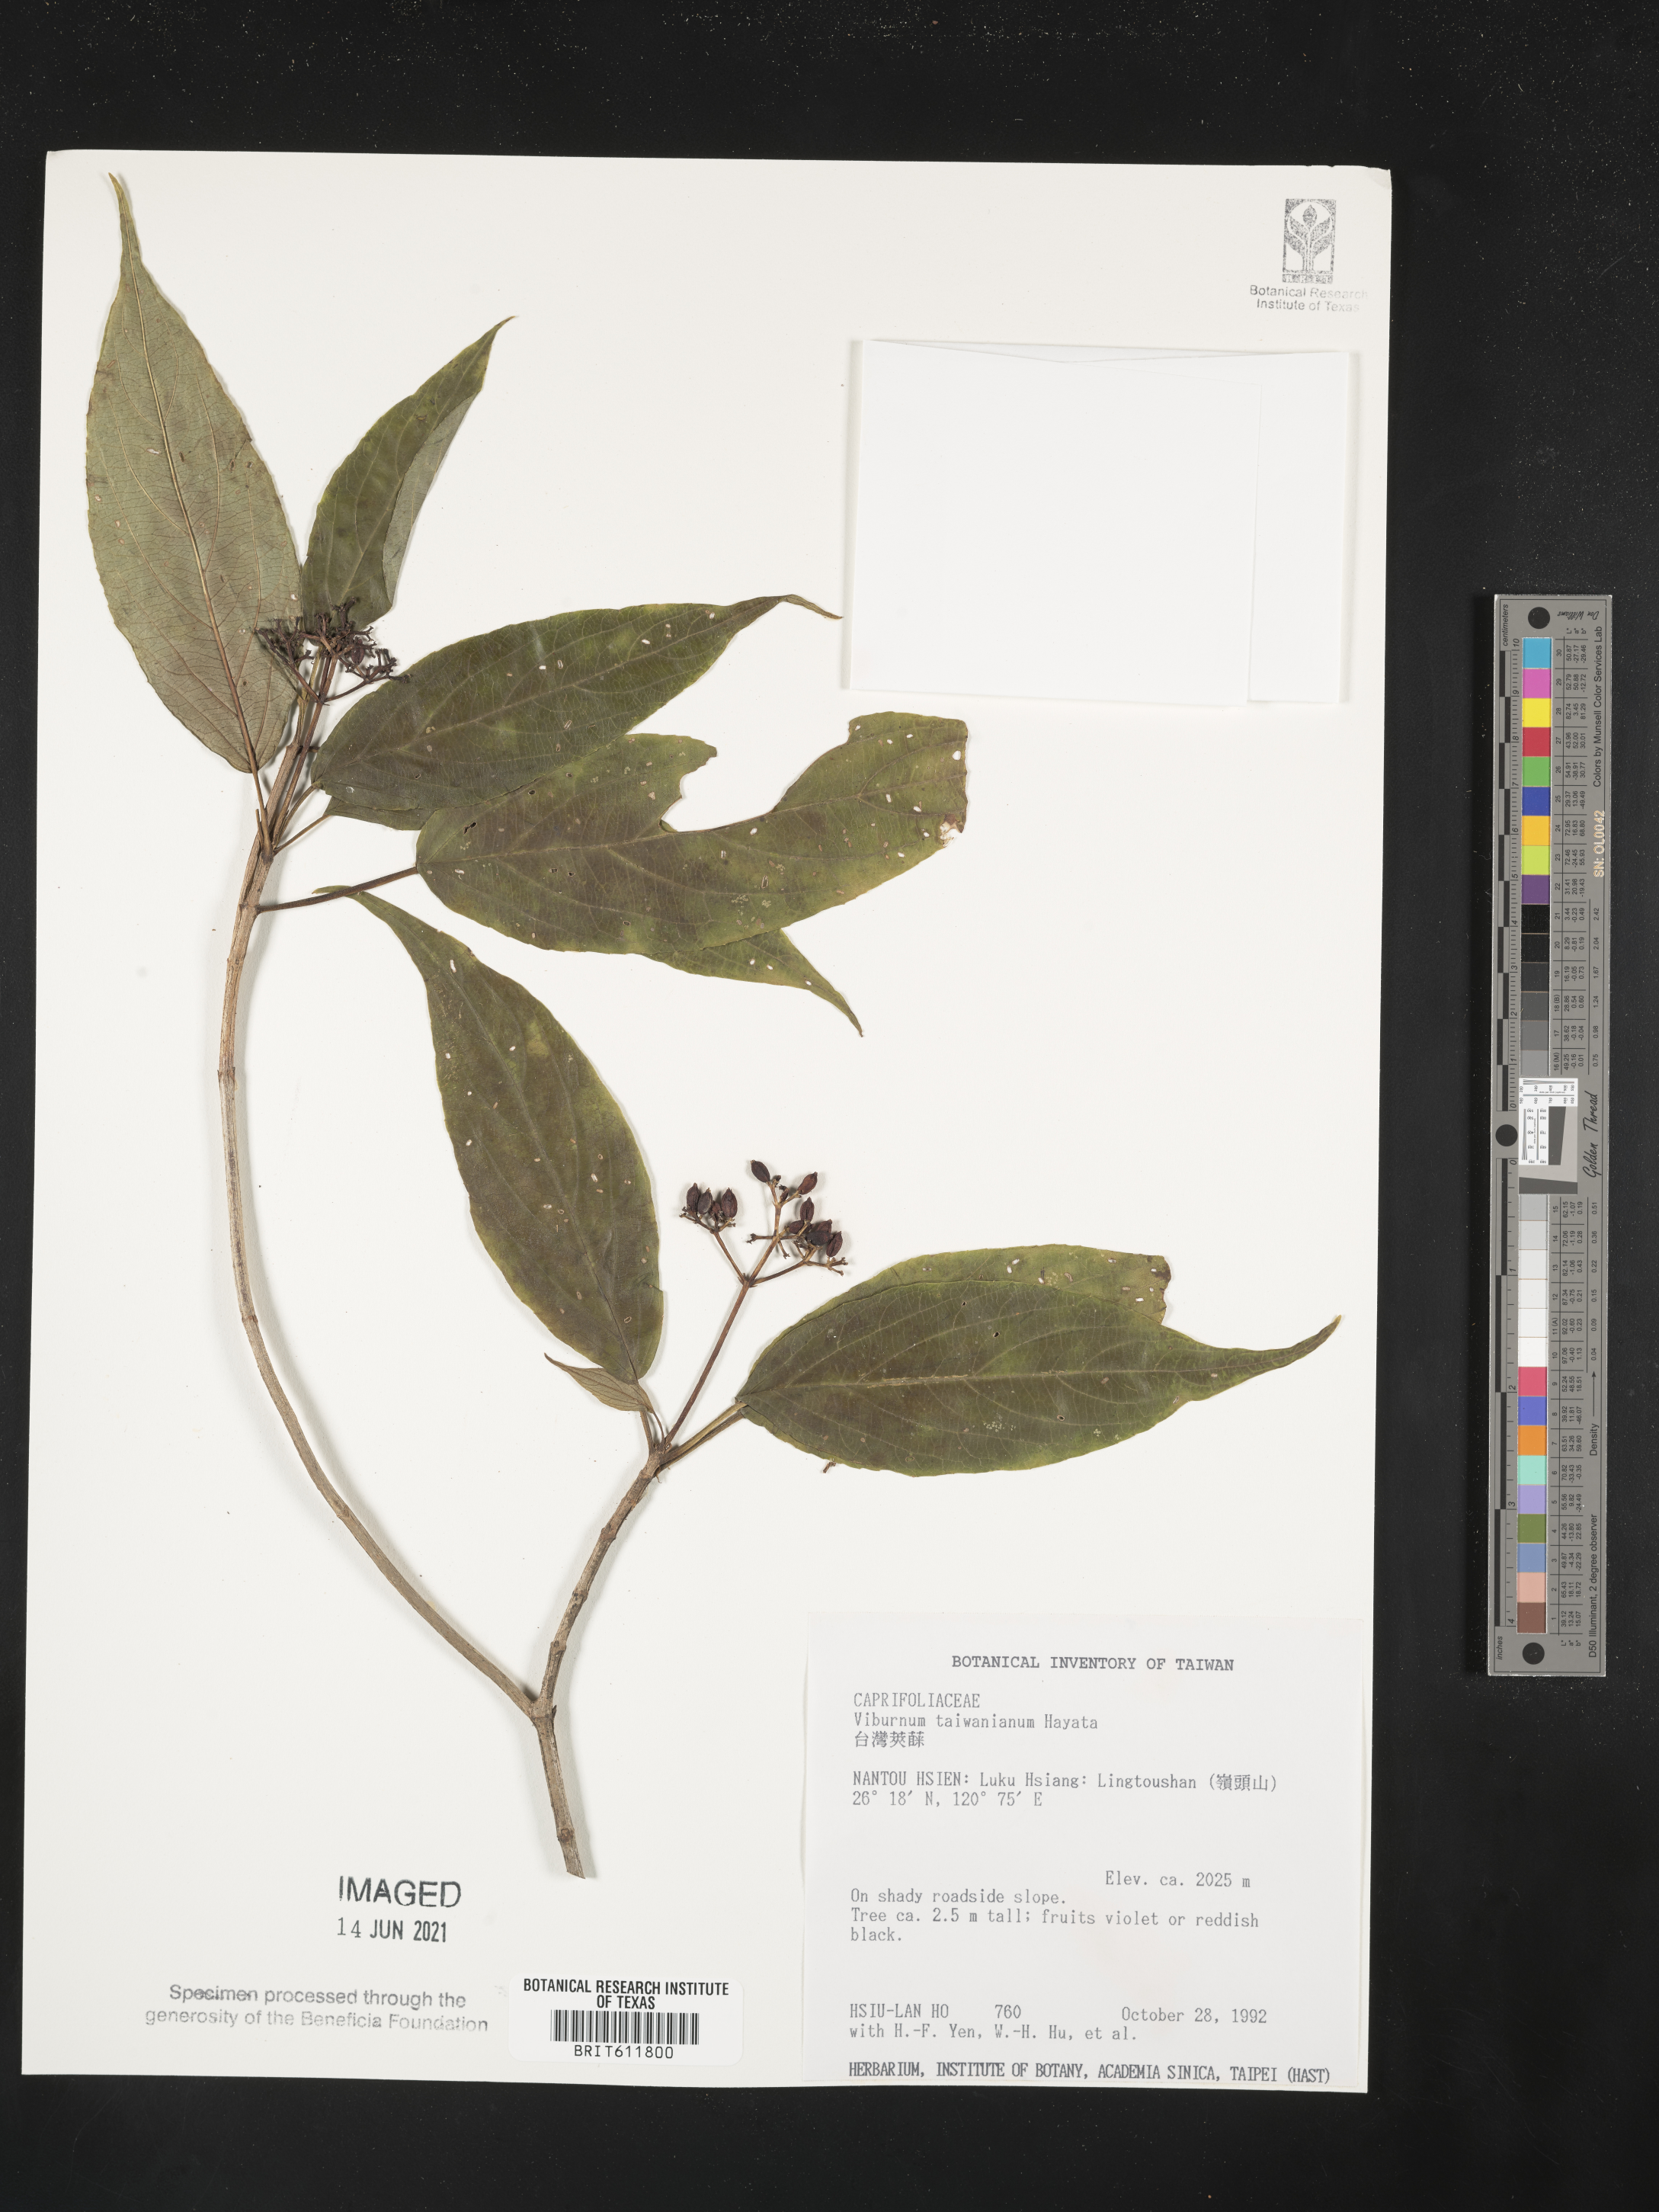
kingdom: Plantae
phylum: Tracheophyta
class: Magnoliopsida
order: Dipsacales
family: Viburnaceae
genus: Viburnum
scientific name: Viburnum urceolatum
